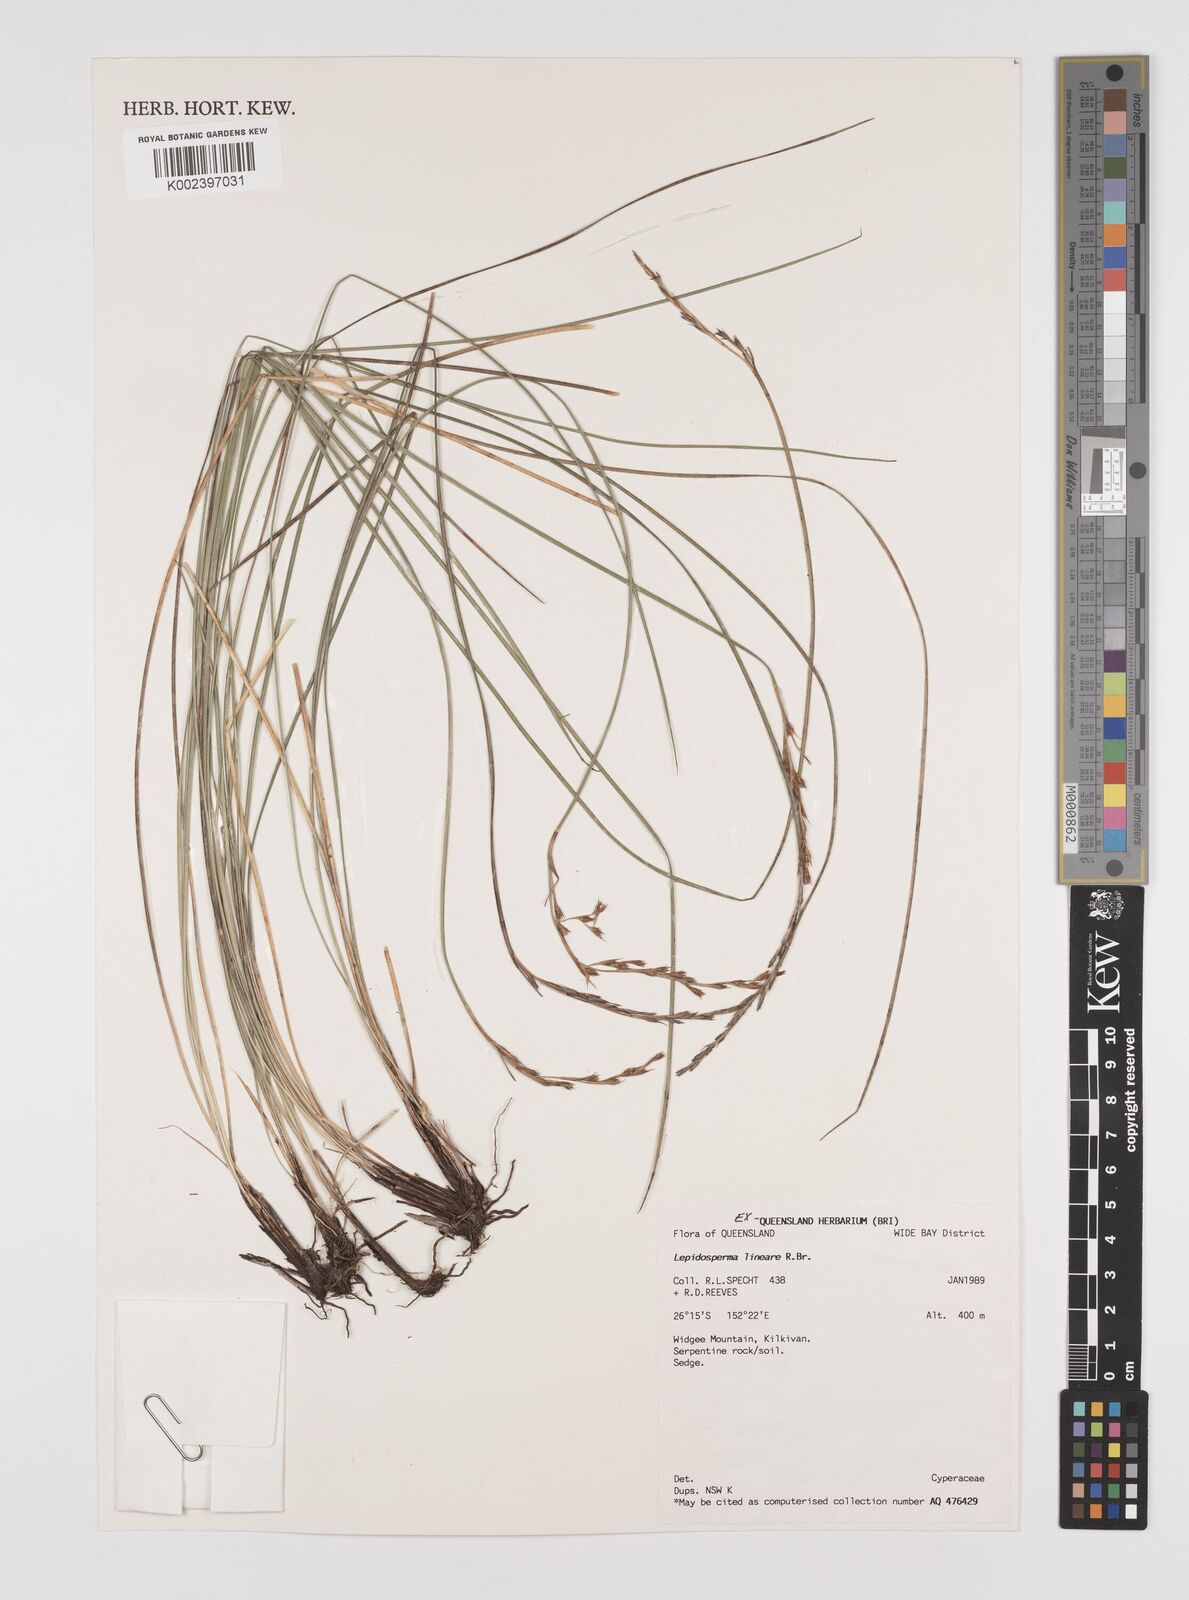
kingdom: Plantae
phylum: Tracheophyta
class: Liliopsida
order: Poales
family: Cyperaceae
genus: Lepidosperma
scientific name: Lepidosperma lineare
